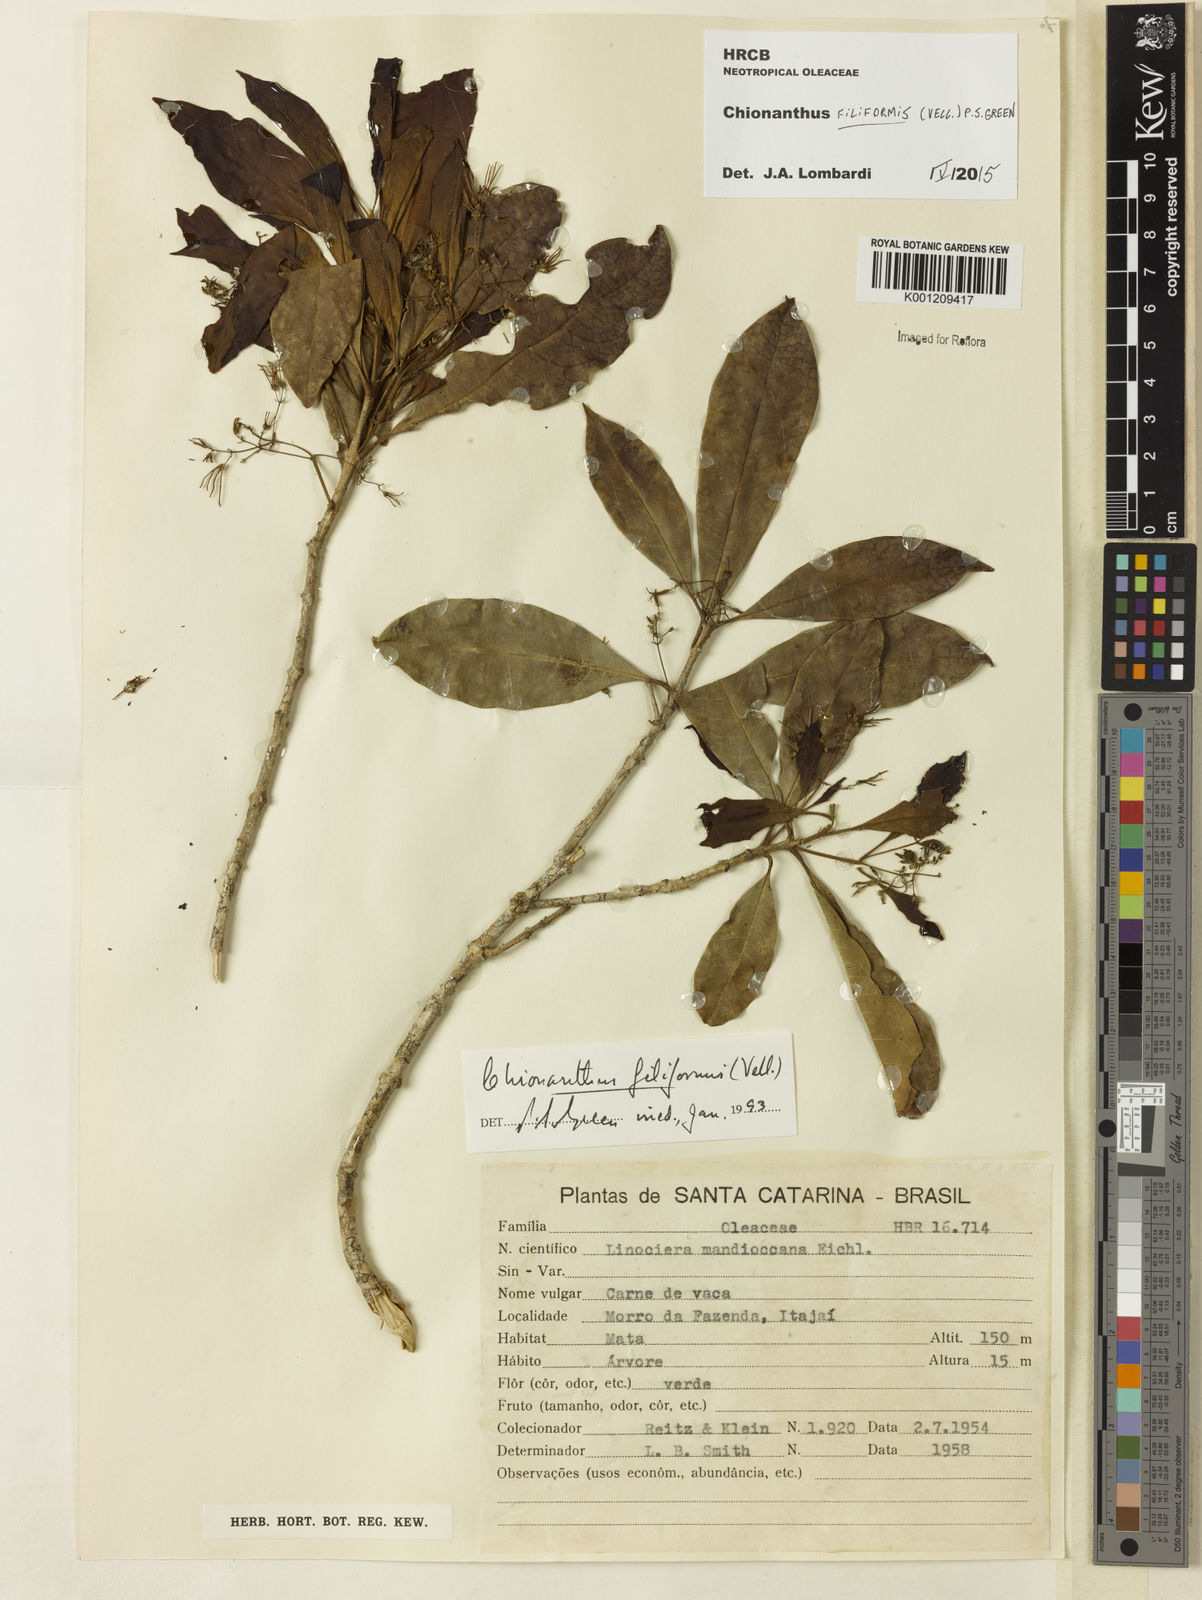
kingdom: Plantae
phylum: Tracheophyta
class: Magnoliopsida
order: Lamiales
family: Oleaceae
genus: Chionanthus
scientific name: Chionanthus filiformis
